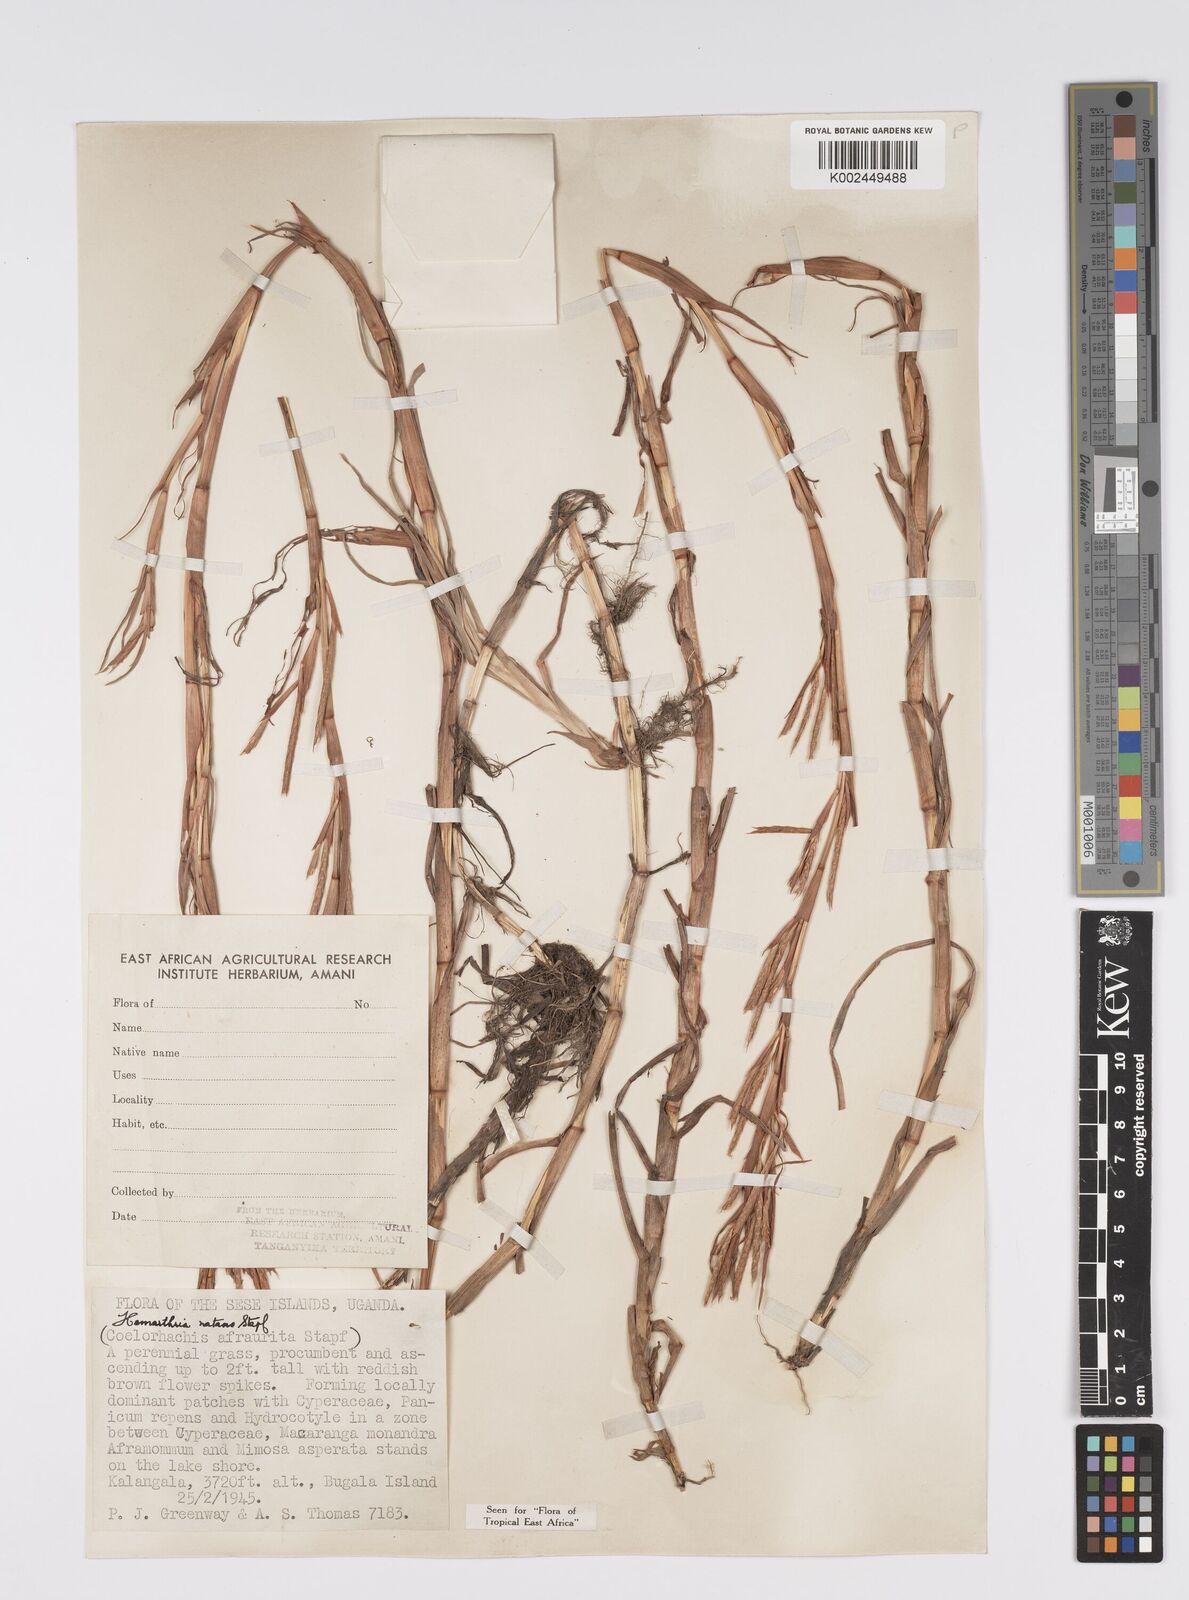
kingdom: Plantae
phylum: Tracheophyta
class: Liliopsida
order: Poales
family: Poaceae
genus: Hemarthria
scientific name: Hemarthria natans
